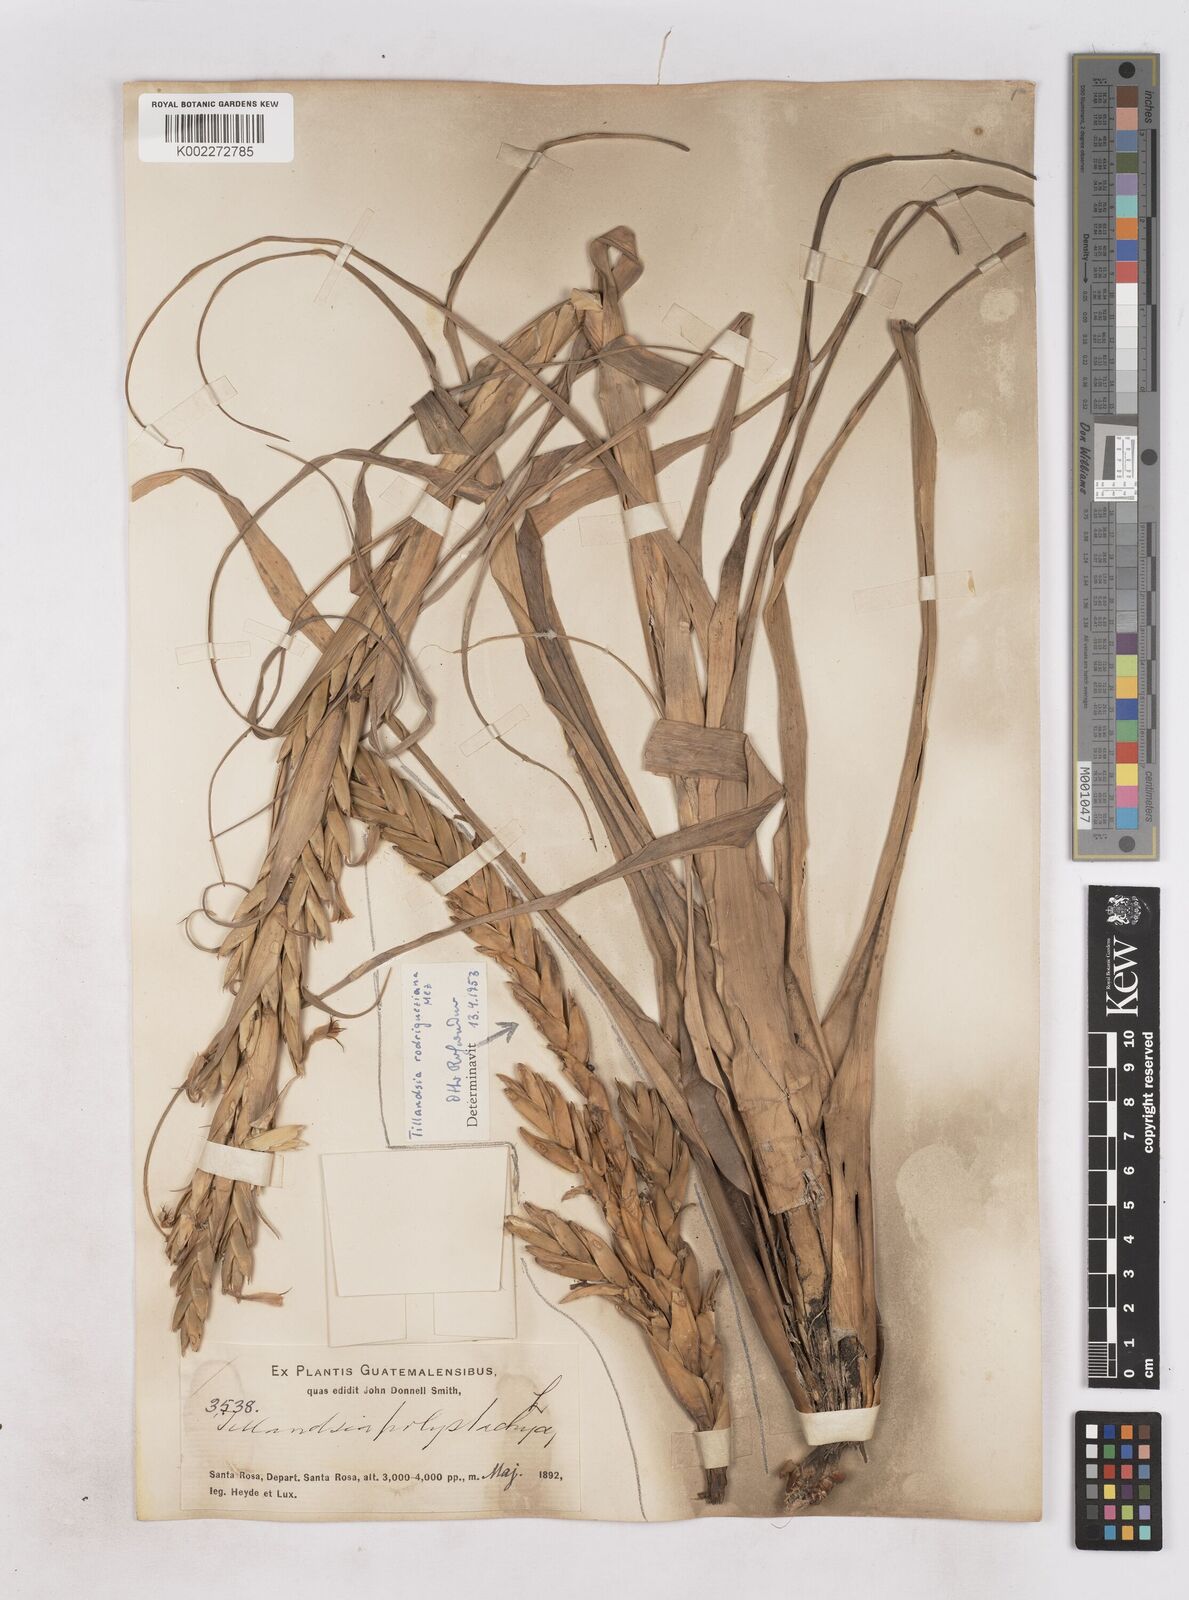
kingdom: Plantae
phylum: Tracheophyta
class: Liliopsida
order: Poales
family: Bromeliaceae
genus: Tillandsia
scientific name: Tillandsia rodrigueziana
